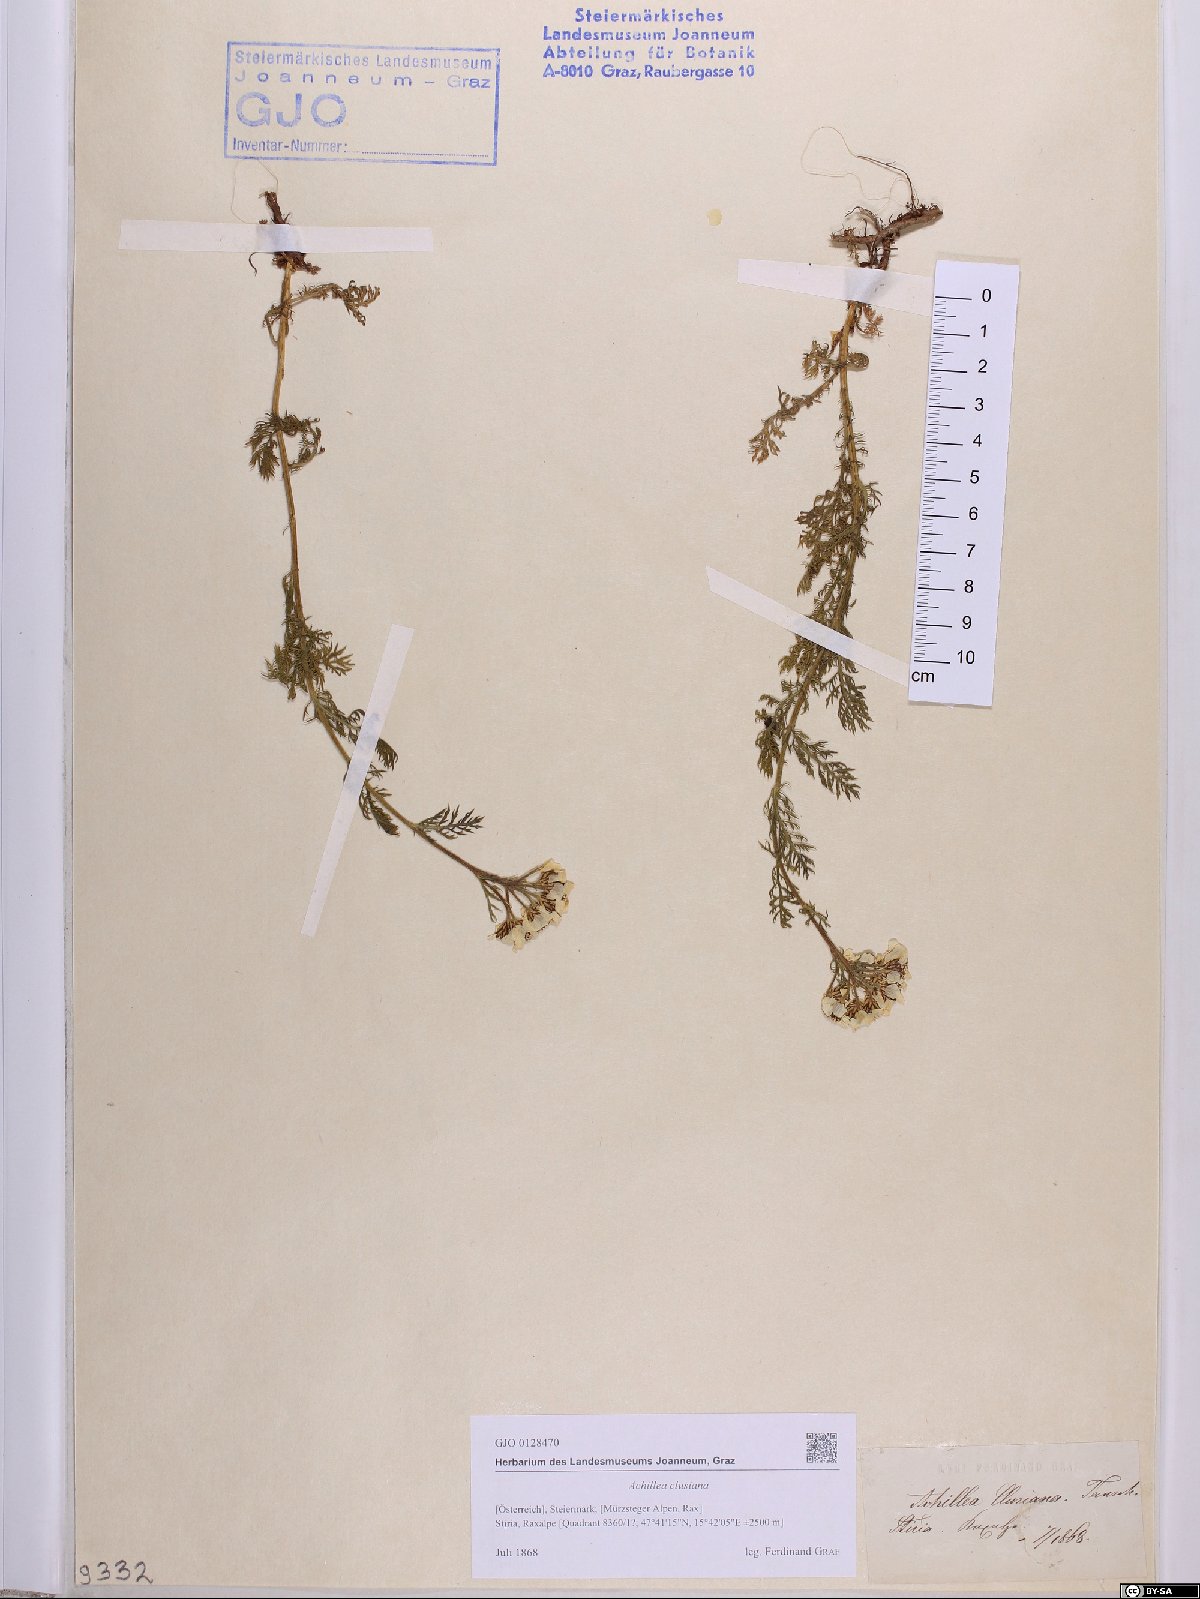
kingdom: Plantae
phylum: Tracheophyta
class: Magnoliopsida
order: Asterales
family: Asteraceae
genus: Achillea
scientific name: Achillea clusiana
